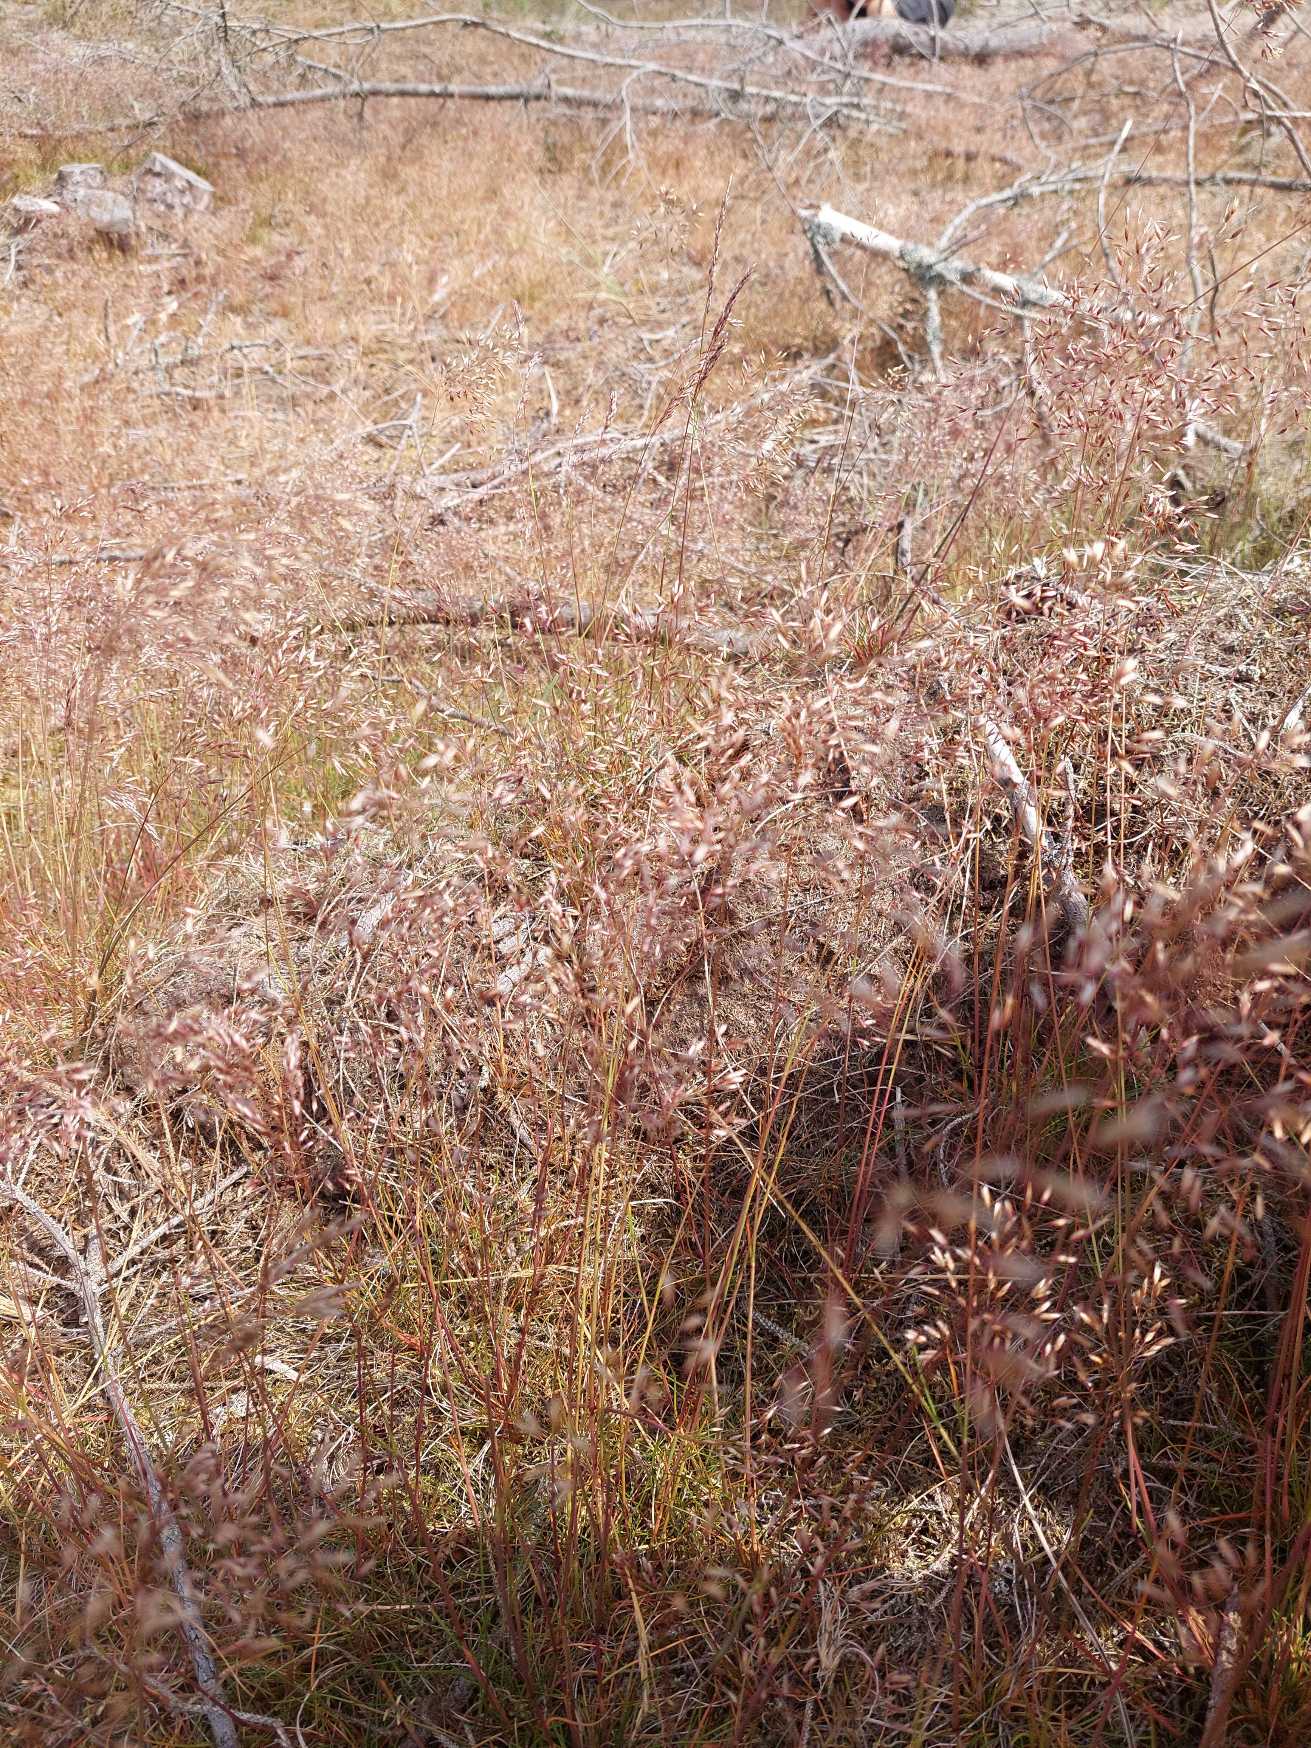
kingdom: Plantae
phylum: Tracheophyta
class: Liliopsida
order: Poales
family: Poaceae
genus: Avenella
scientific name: Avenella flexuosa
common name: Bølget bunke
